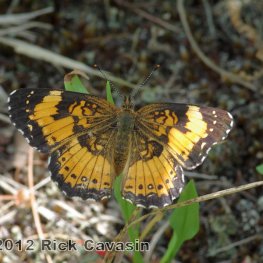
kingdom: Animalia
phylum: Arthropoda
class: Insecta
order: Lepidoptera
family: Nymphalidae
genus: Chlosyne
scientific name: Chlosyne nycteis
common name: Silvery Checkerspot
